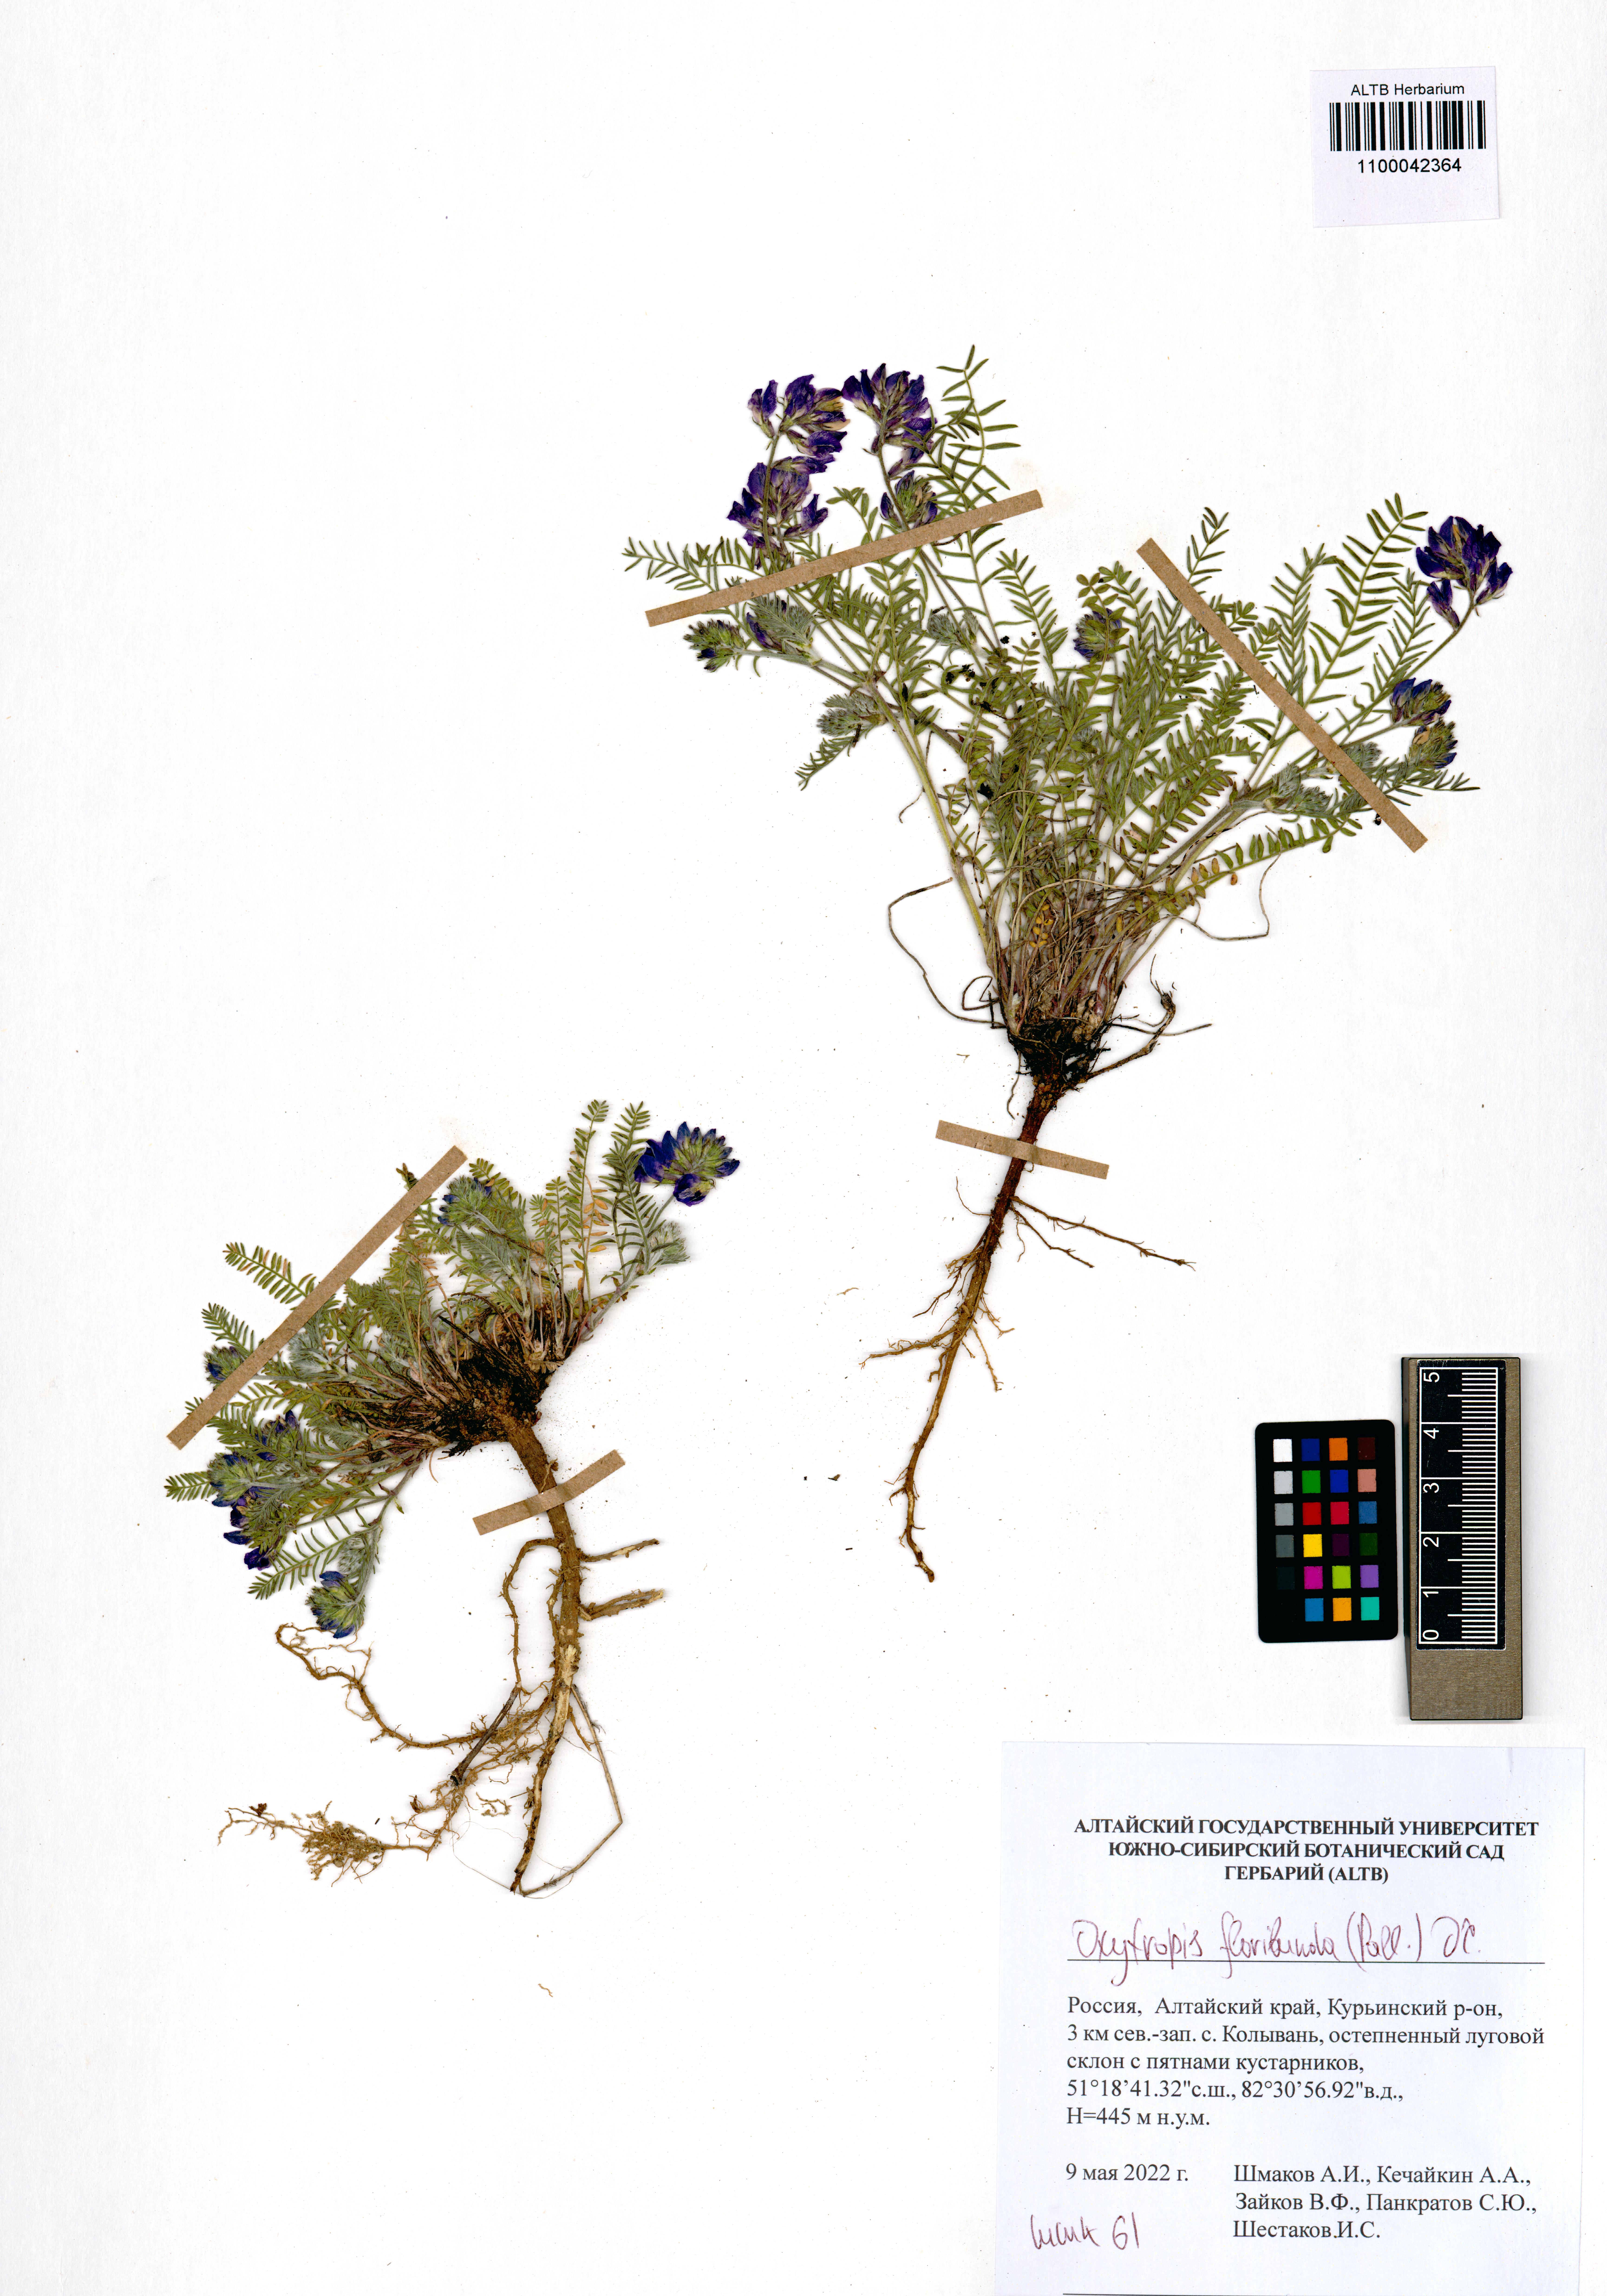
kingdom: Plantae
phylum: Tracheophyta
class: Magnoliopsida
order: Fabales
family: Fabaceae
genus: Oxytropis
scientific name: Oxytropis floribunda
